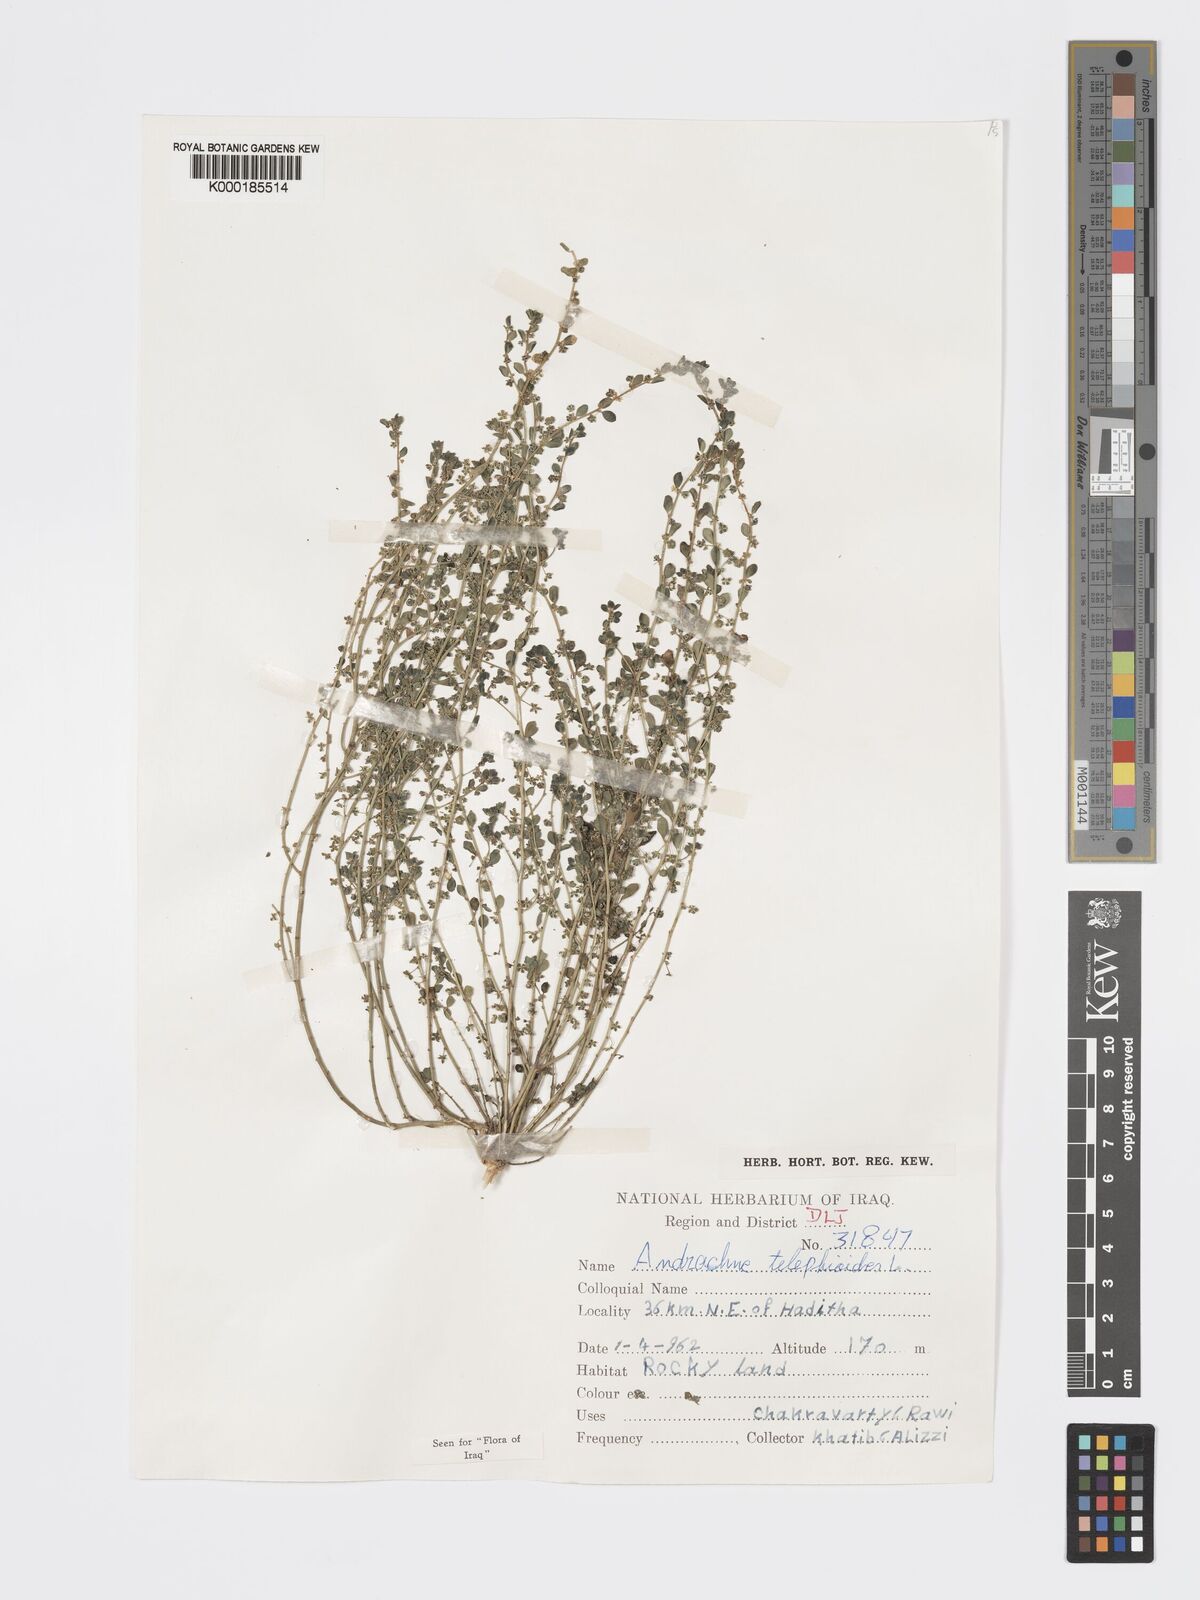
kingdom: Plantae
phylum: Tracheophyta
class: Magnoliopsida
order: Malpighiales
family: Phyllanthaceae
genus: Andrachne
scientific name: Andrachne telephioides
